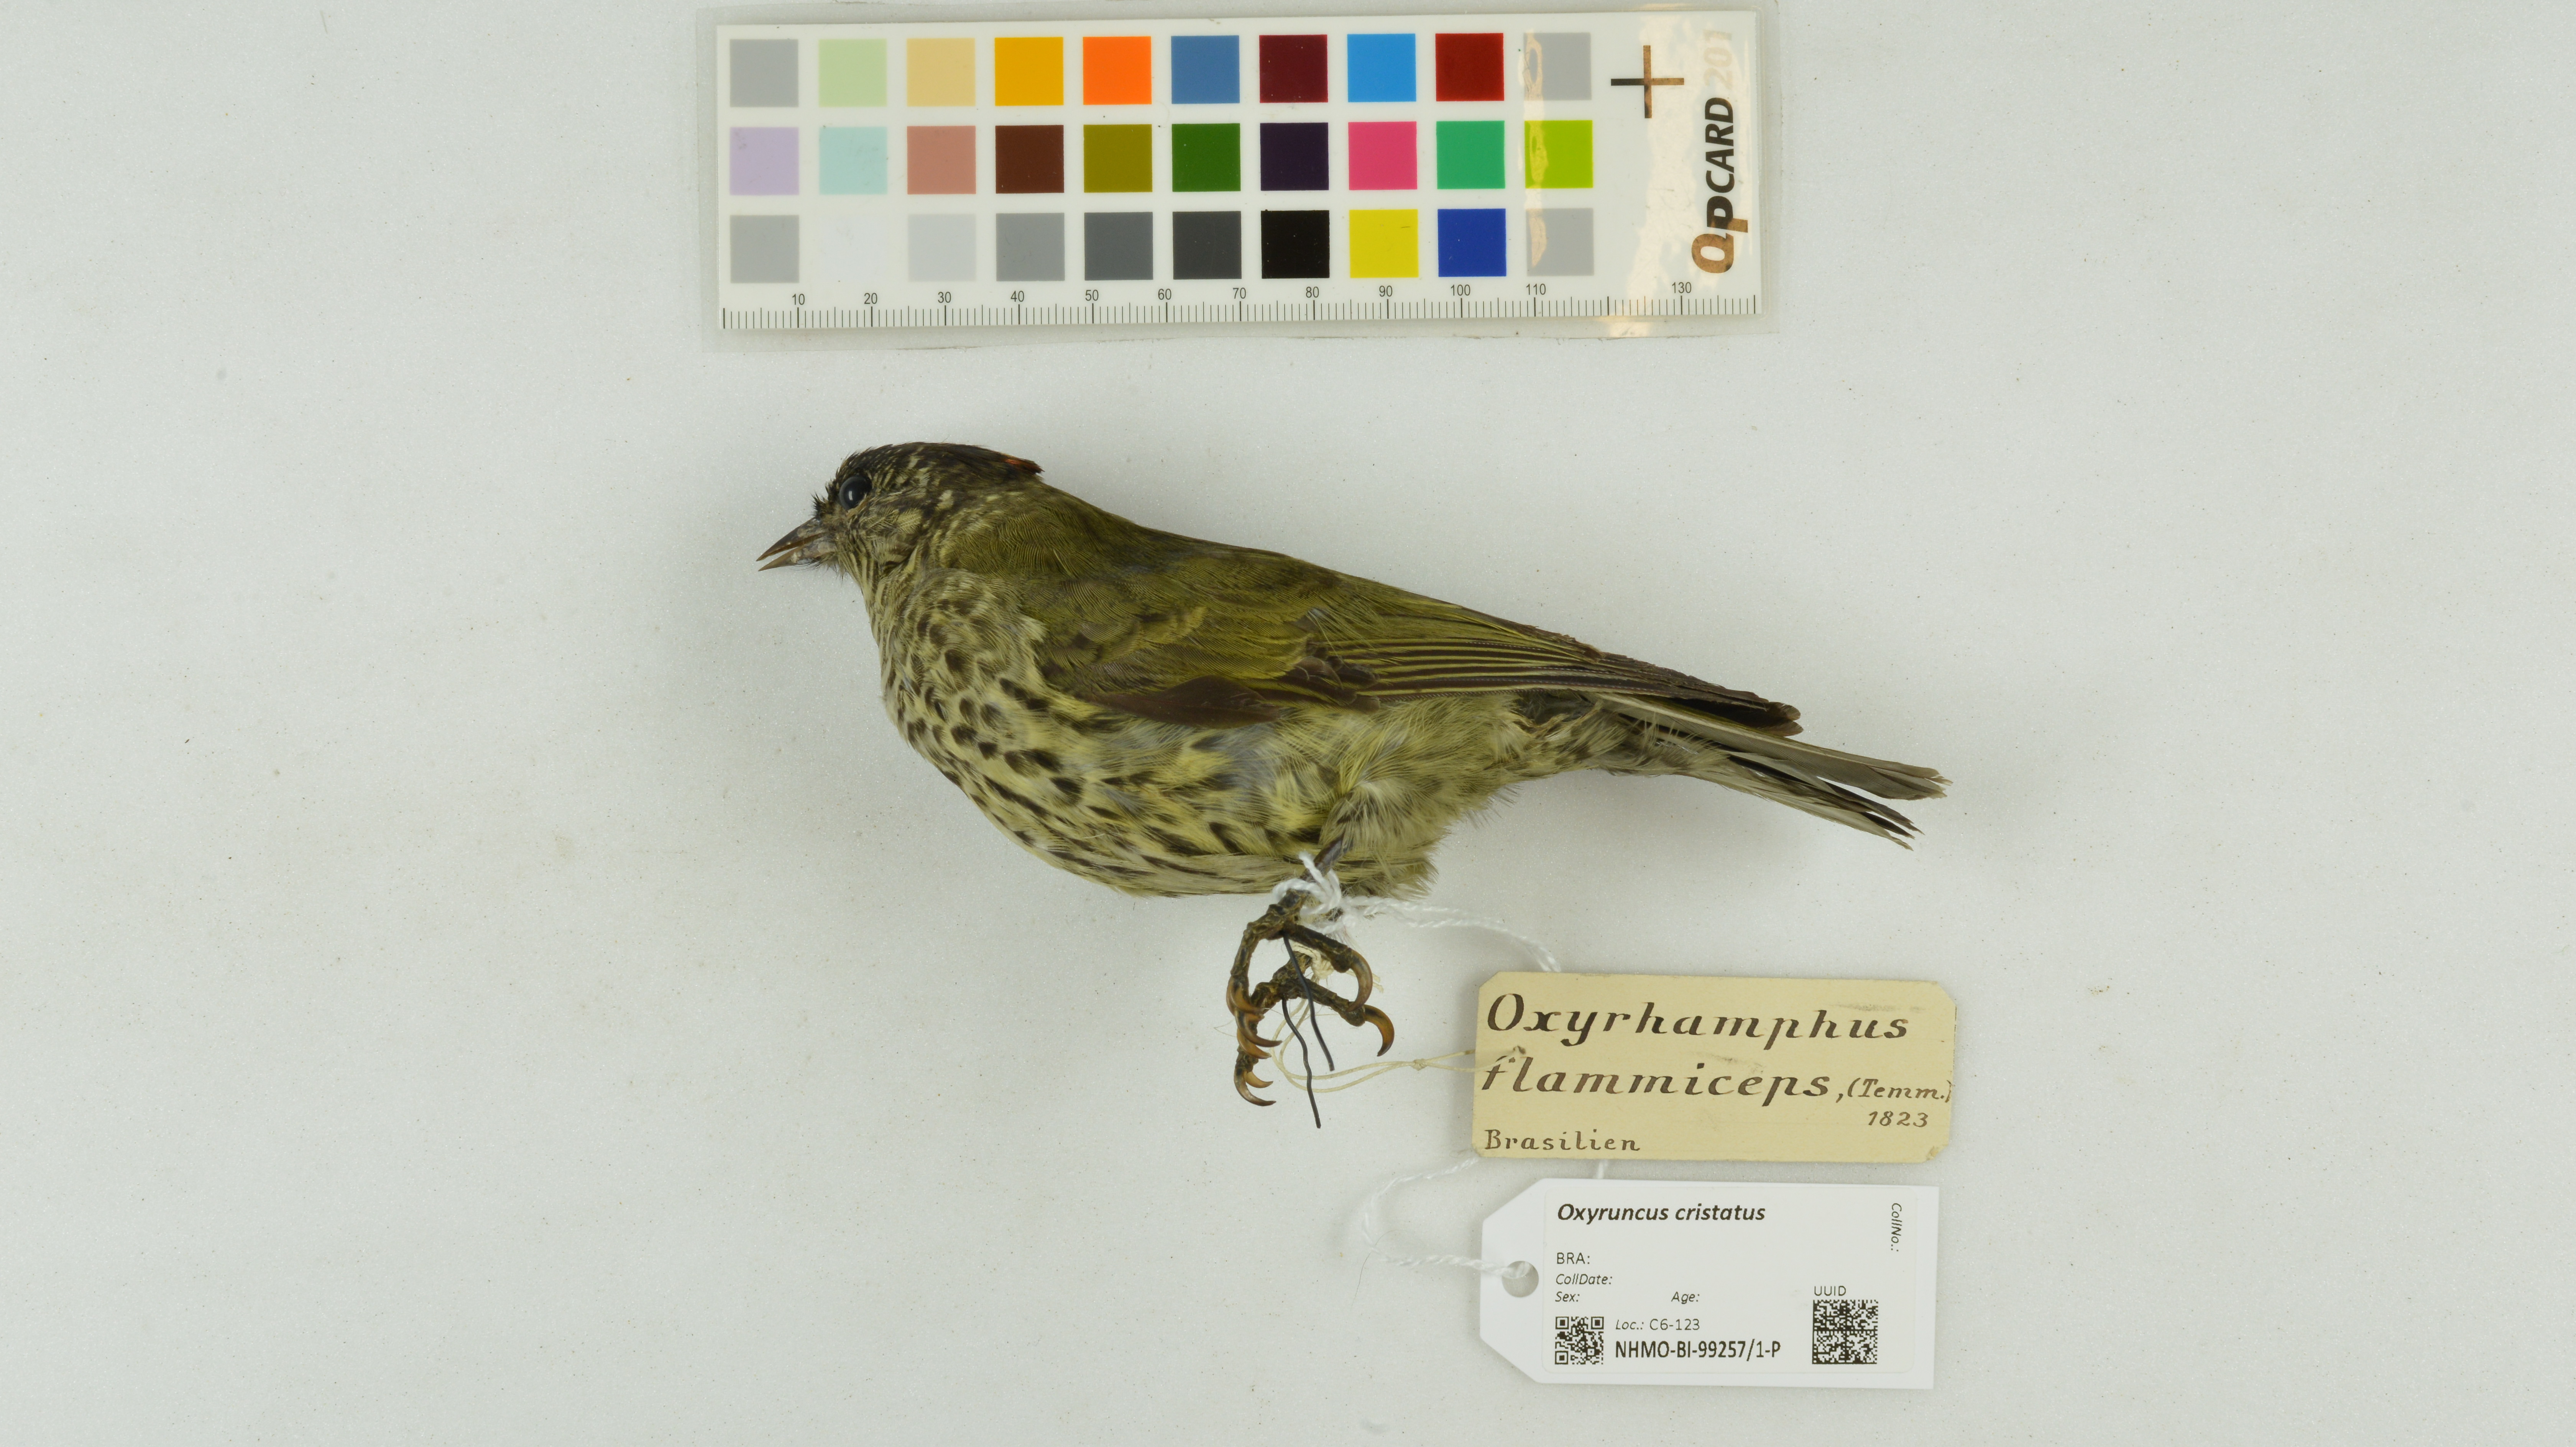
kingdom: Animalia
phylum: Chordata
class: Aves
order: Passeriformes
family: Cotingidae
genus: Oxyruncus
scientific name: Oxyruncus cristatus
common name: Sharpbill
